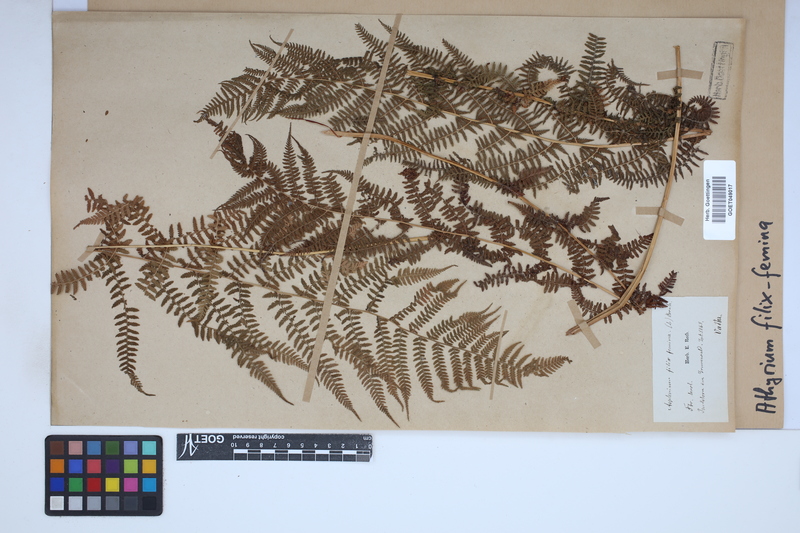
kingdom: Plantae
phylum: Tracheophyta
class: Polypodiopsida
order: Polypodiales
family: Athyriaceae
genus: Athyrium
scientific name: Athyrium filix-femina
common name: Lady fern
